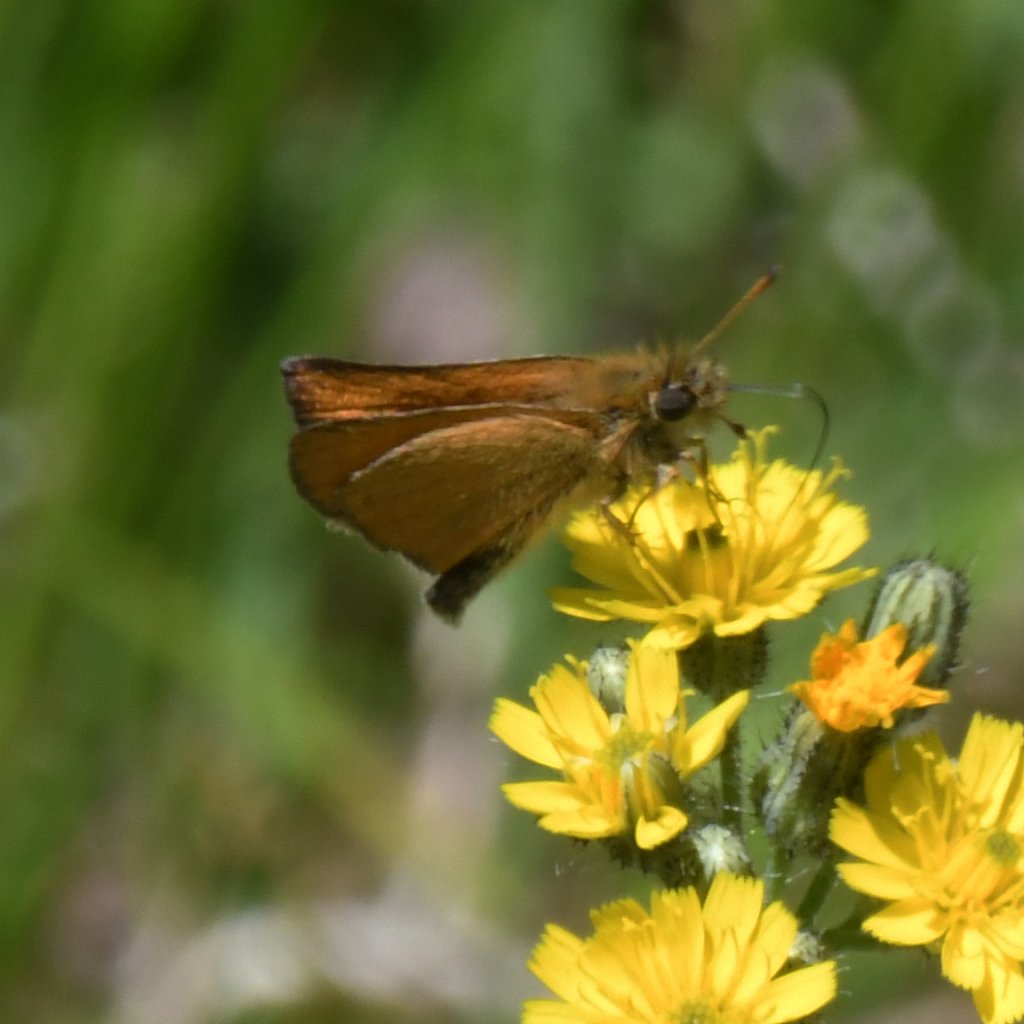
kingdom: Animalia
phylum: Arthropoda
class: Insecta
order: Lepidoptera
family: Hesperiidae
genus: Thymelicus
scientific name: Thymelicus lineola
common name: European Skipper
